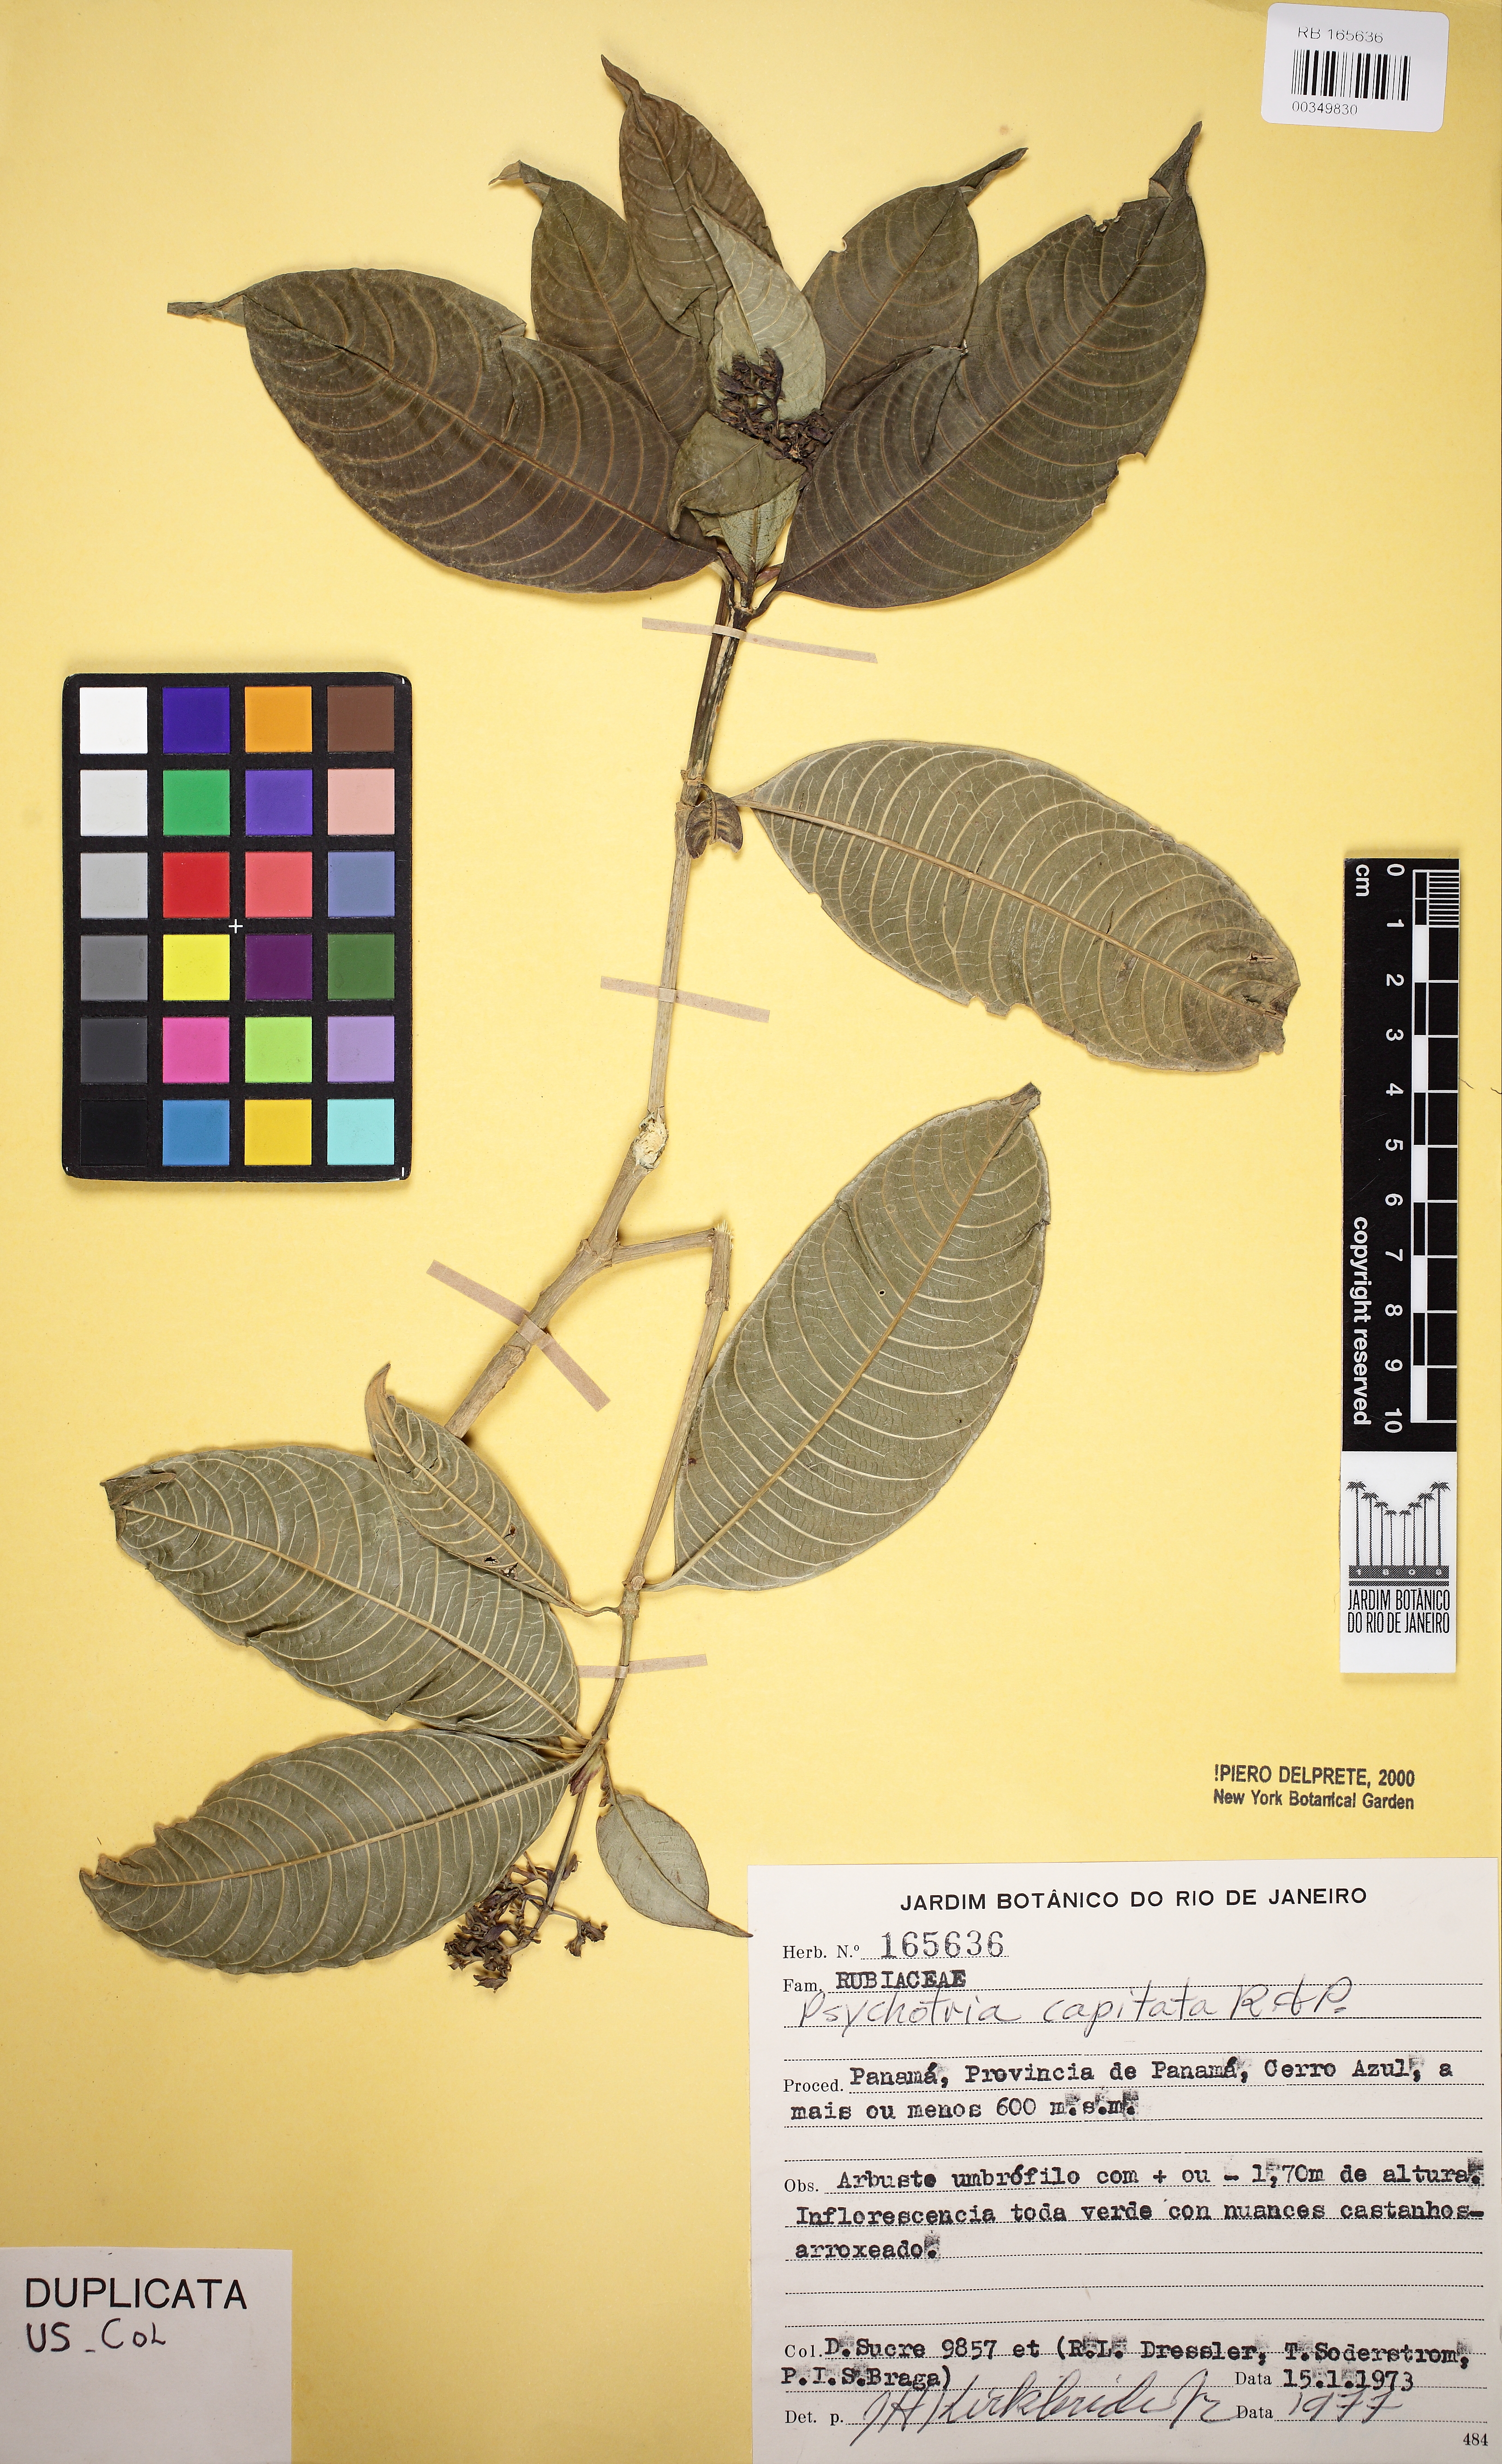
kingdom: Plantae
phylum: Tracheophyta
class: Magnoliopsida
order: Gentianales
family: Rubiaceae
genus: Palicourea
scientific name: Palicourea violacea
